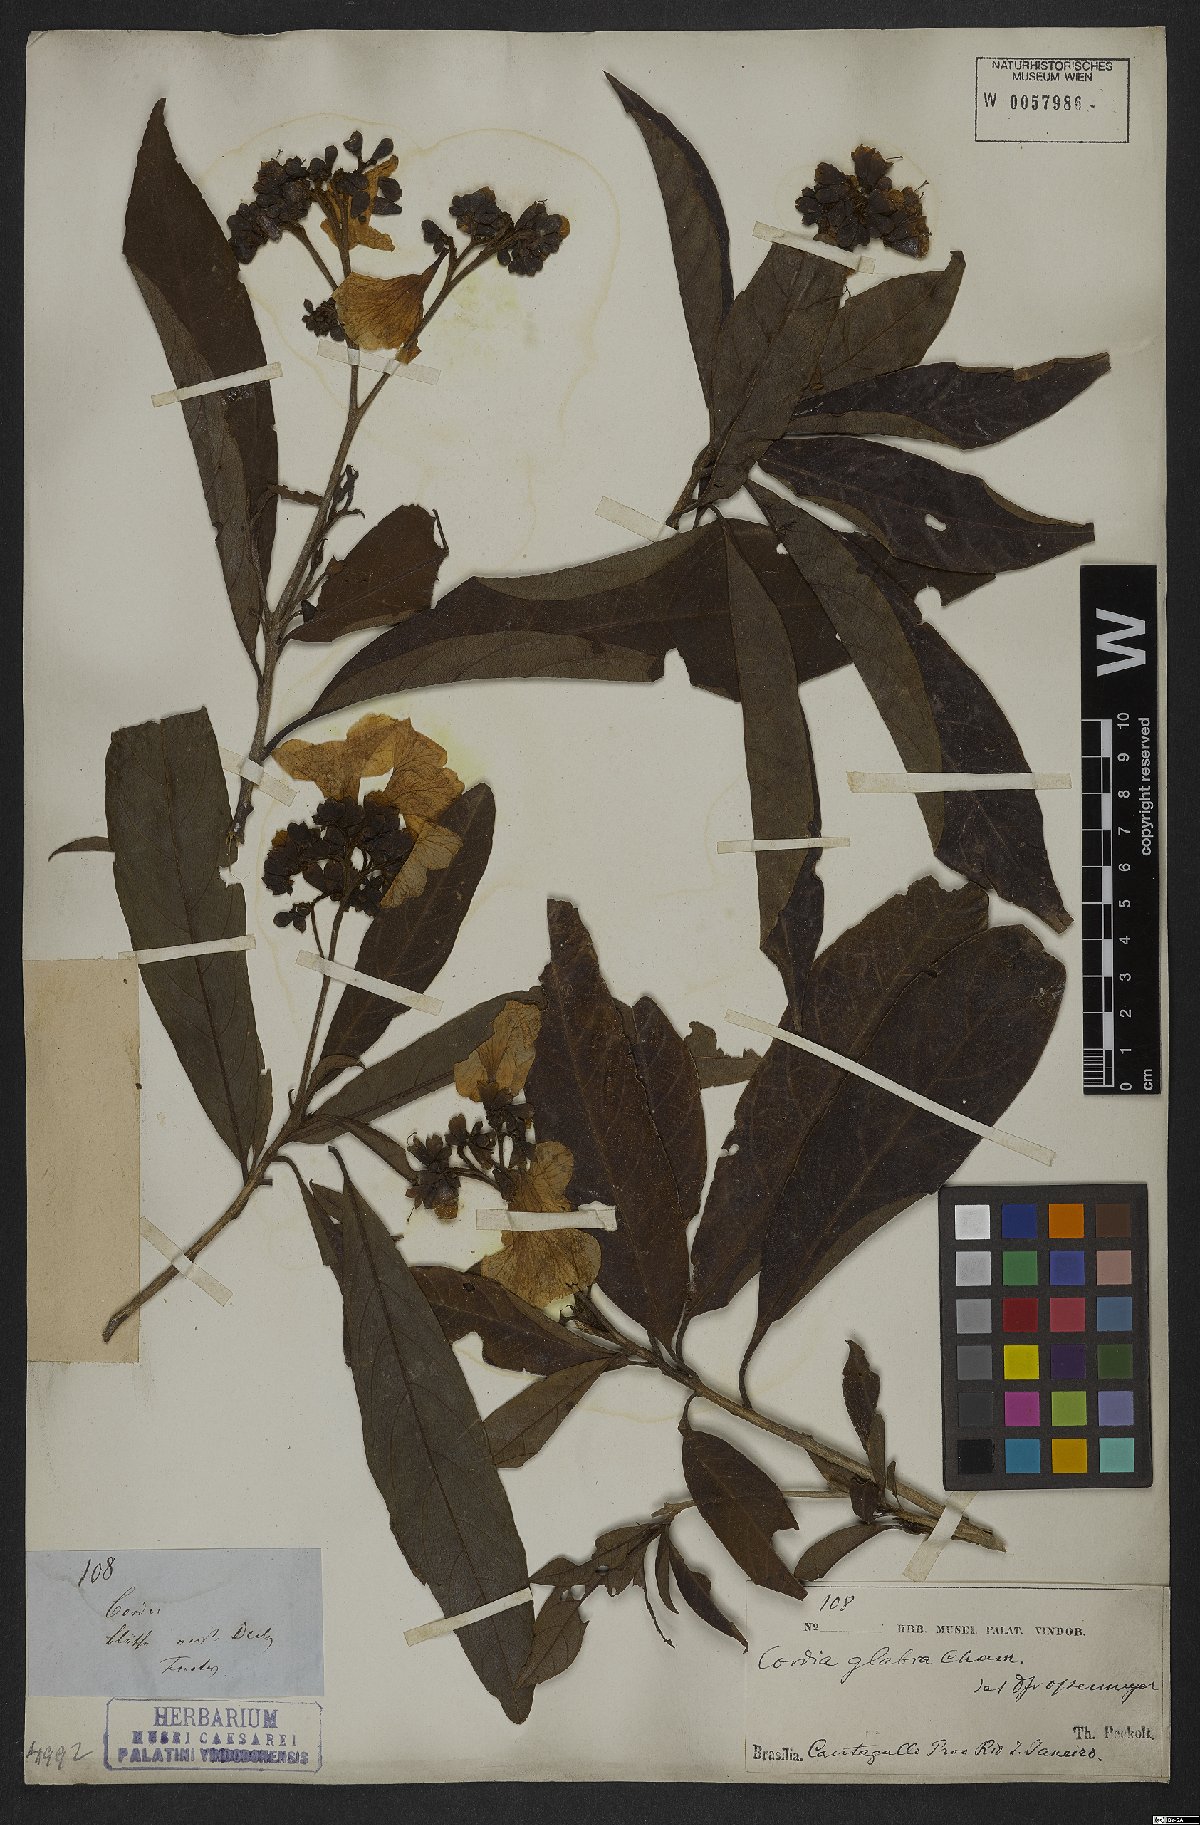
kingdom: Plantae
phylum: Tracheophyta
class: Magnoliopsida
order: Boraginales
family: Cordiaceae
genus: Cordia
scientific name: Cordia glabra
